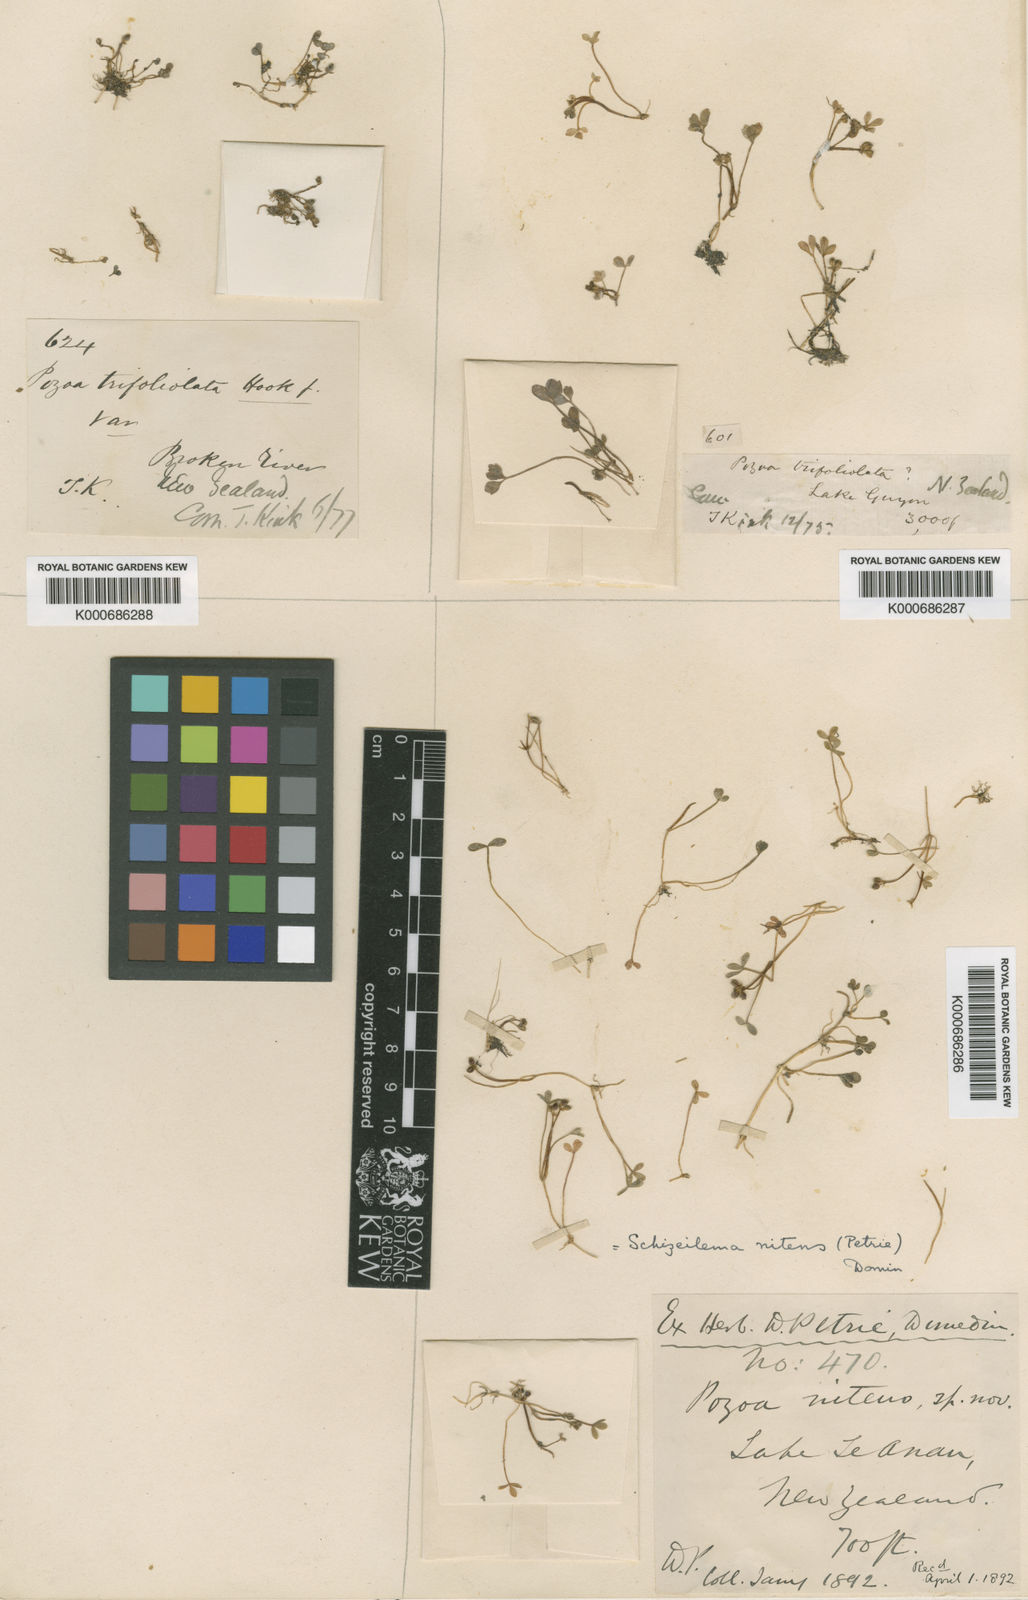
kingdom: Plantae
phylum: Tracheophyta
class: Magnoliopsida
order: Apiales
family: Apiaceae
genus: Azorella
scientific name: Azorella nitens
